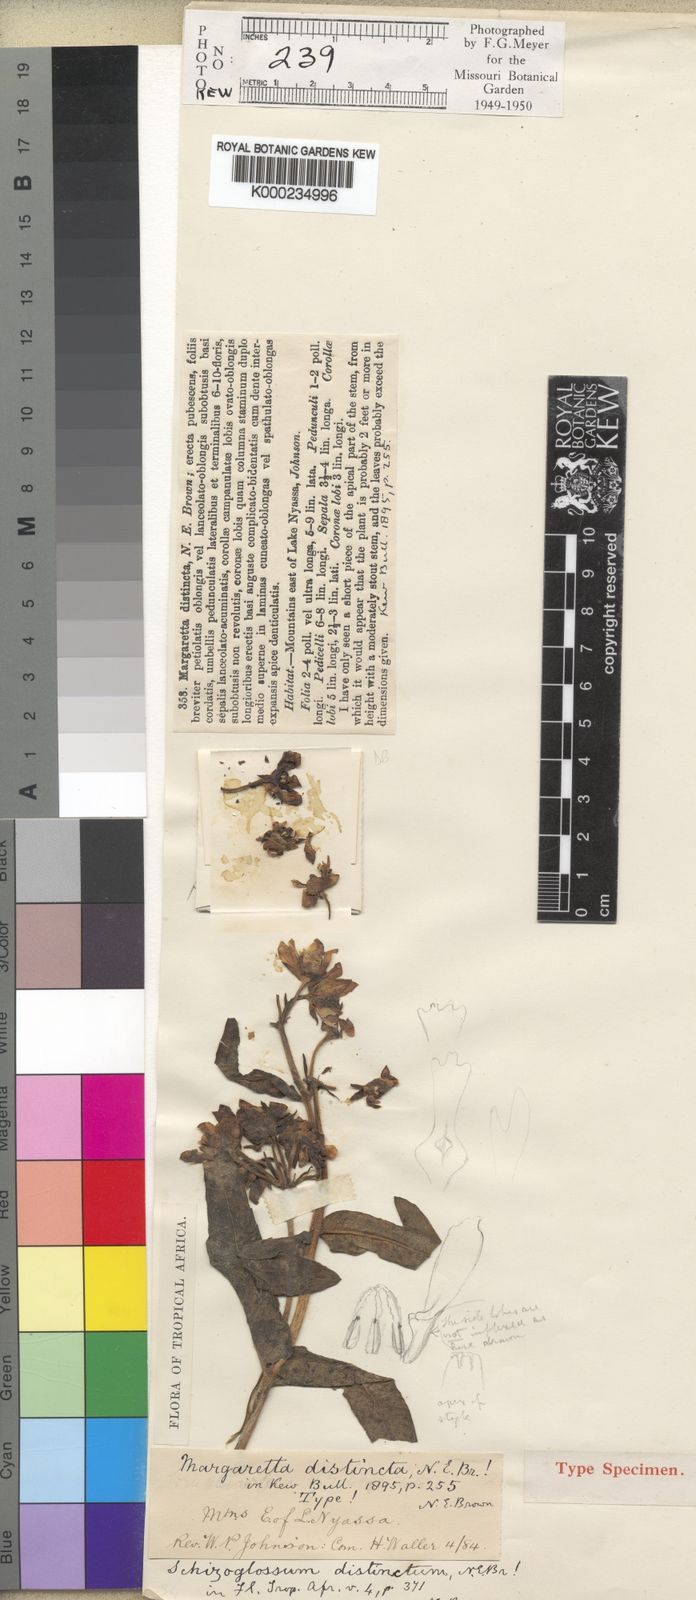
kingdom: Plantae
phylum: Tracheophyta
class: Magnoliopsida
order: Gentianales
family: Apocynaceae
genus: Pachycarpus
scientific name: Pachycarpus distinctus
